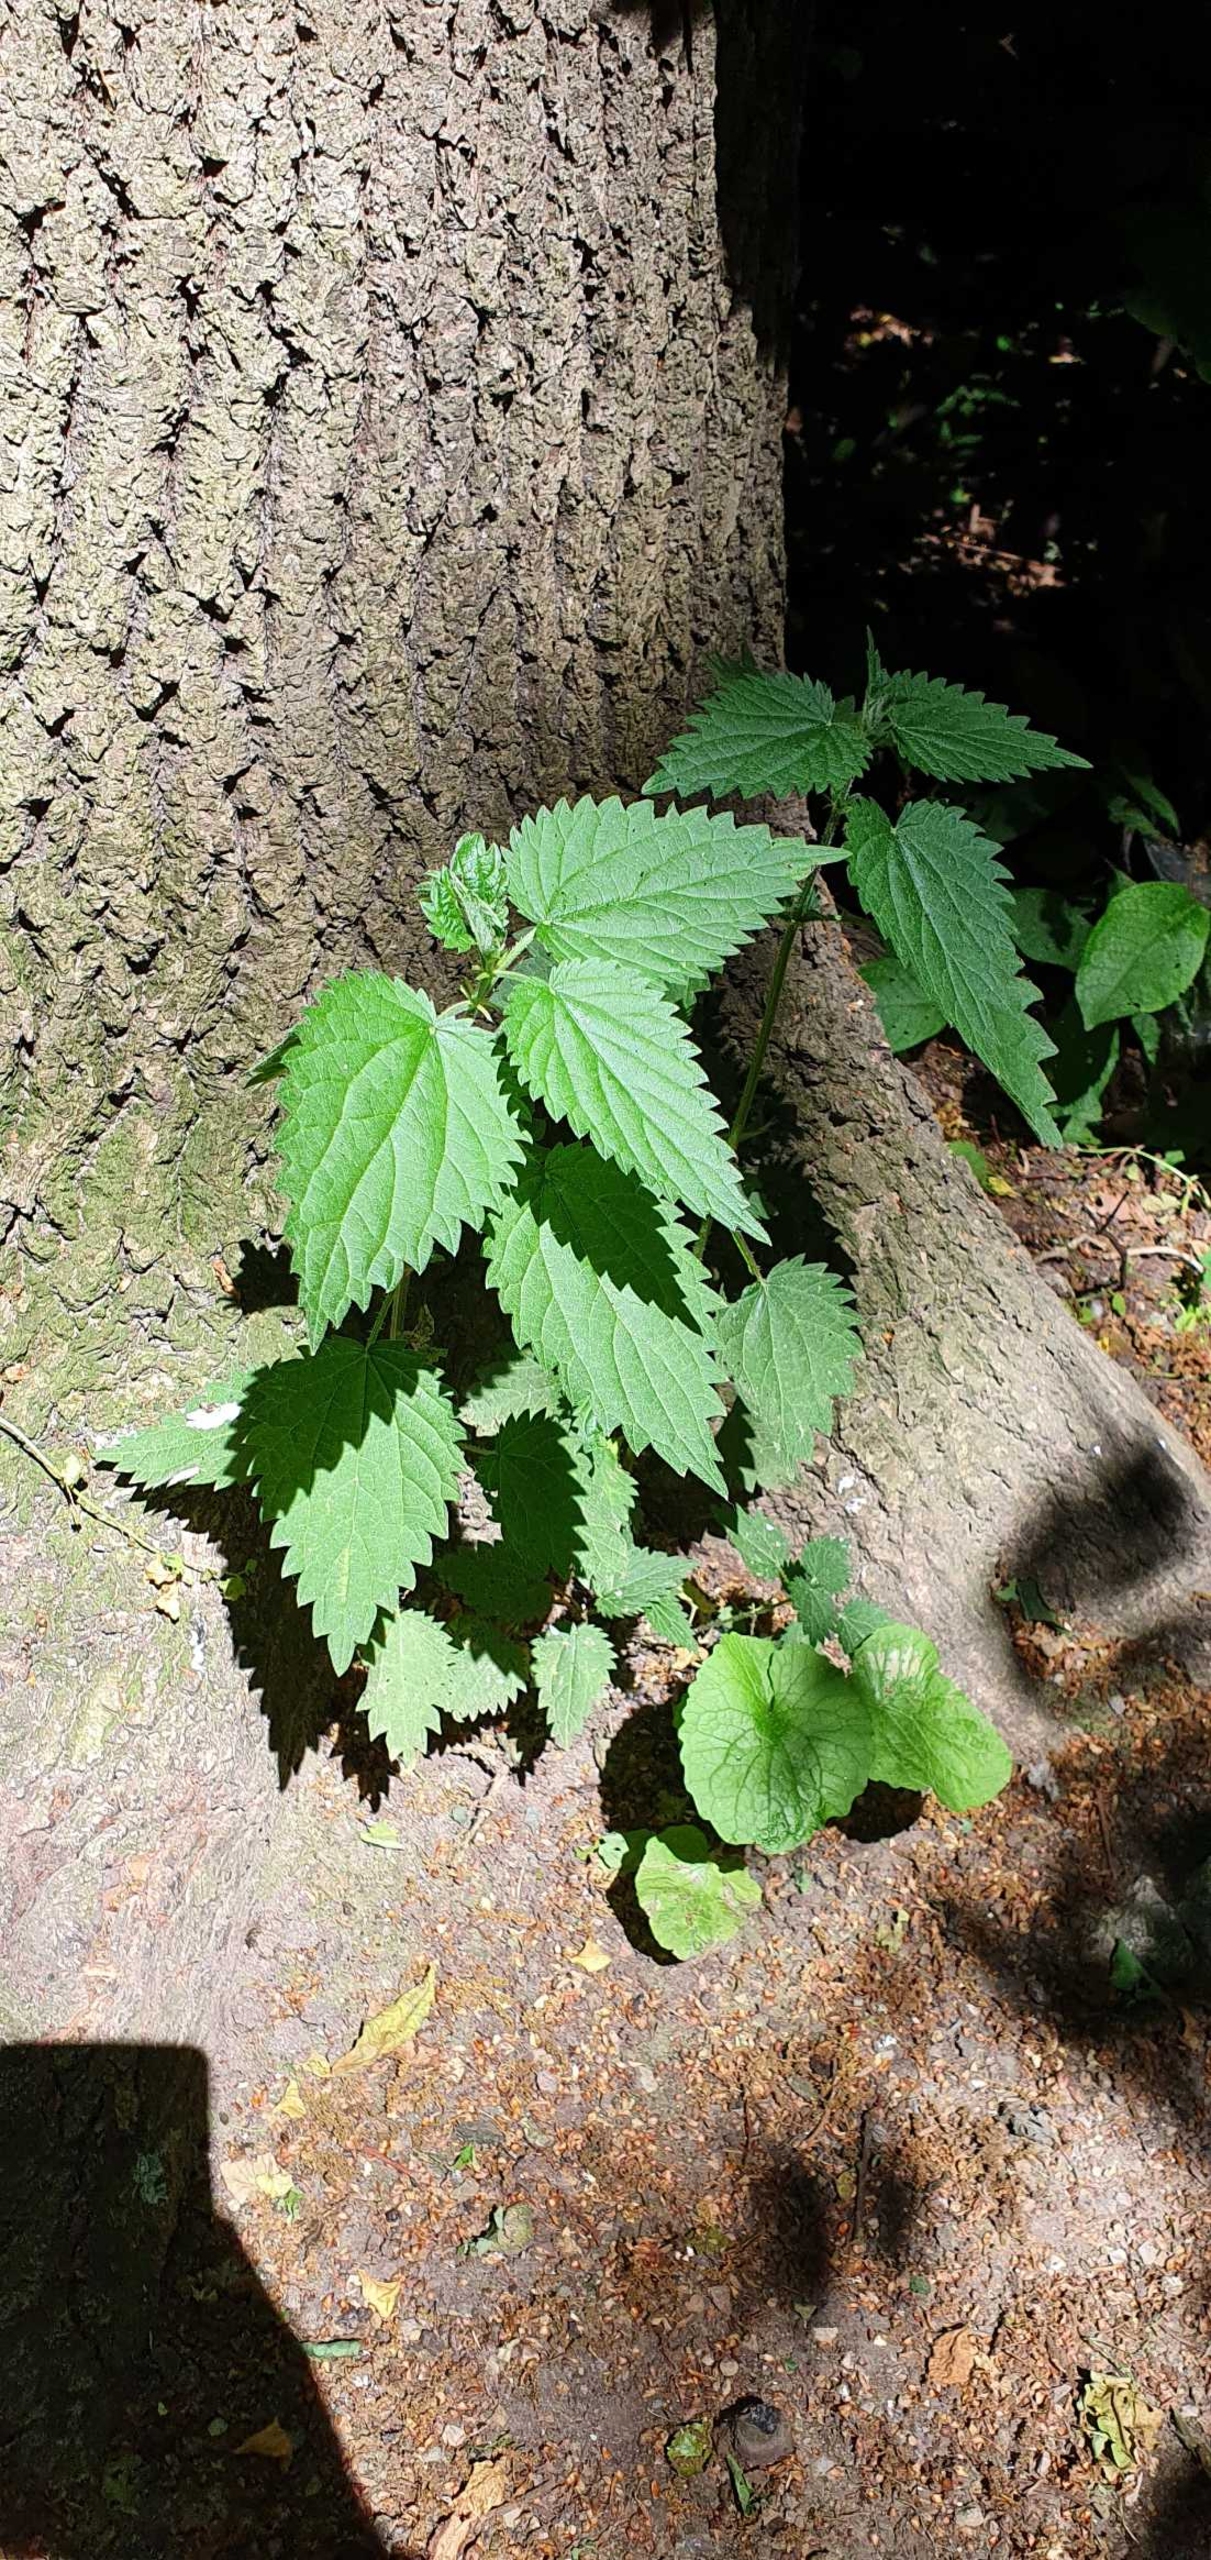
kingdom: Plantae
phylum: Tracheophyta
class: Magnoliopsida
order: Rosales
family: Urticaceae
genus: Urtica
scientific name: Urtica dioica
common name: Stor nælde
